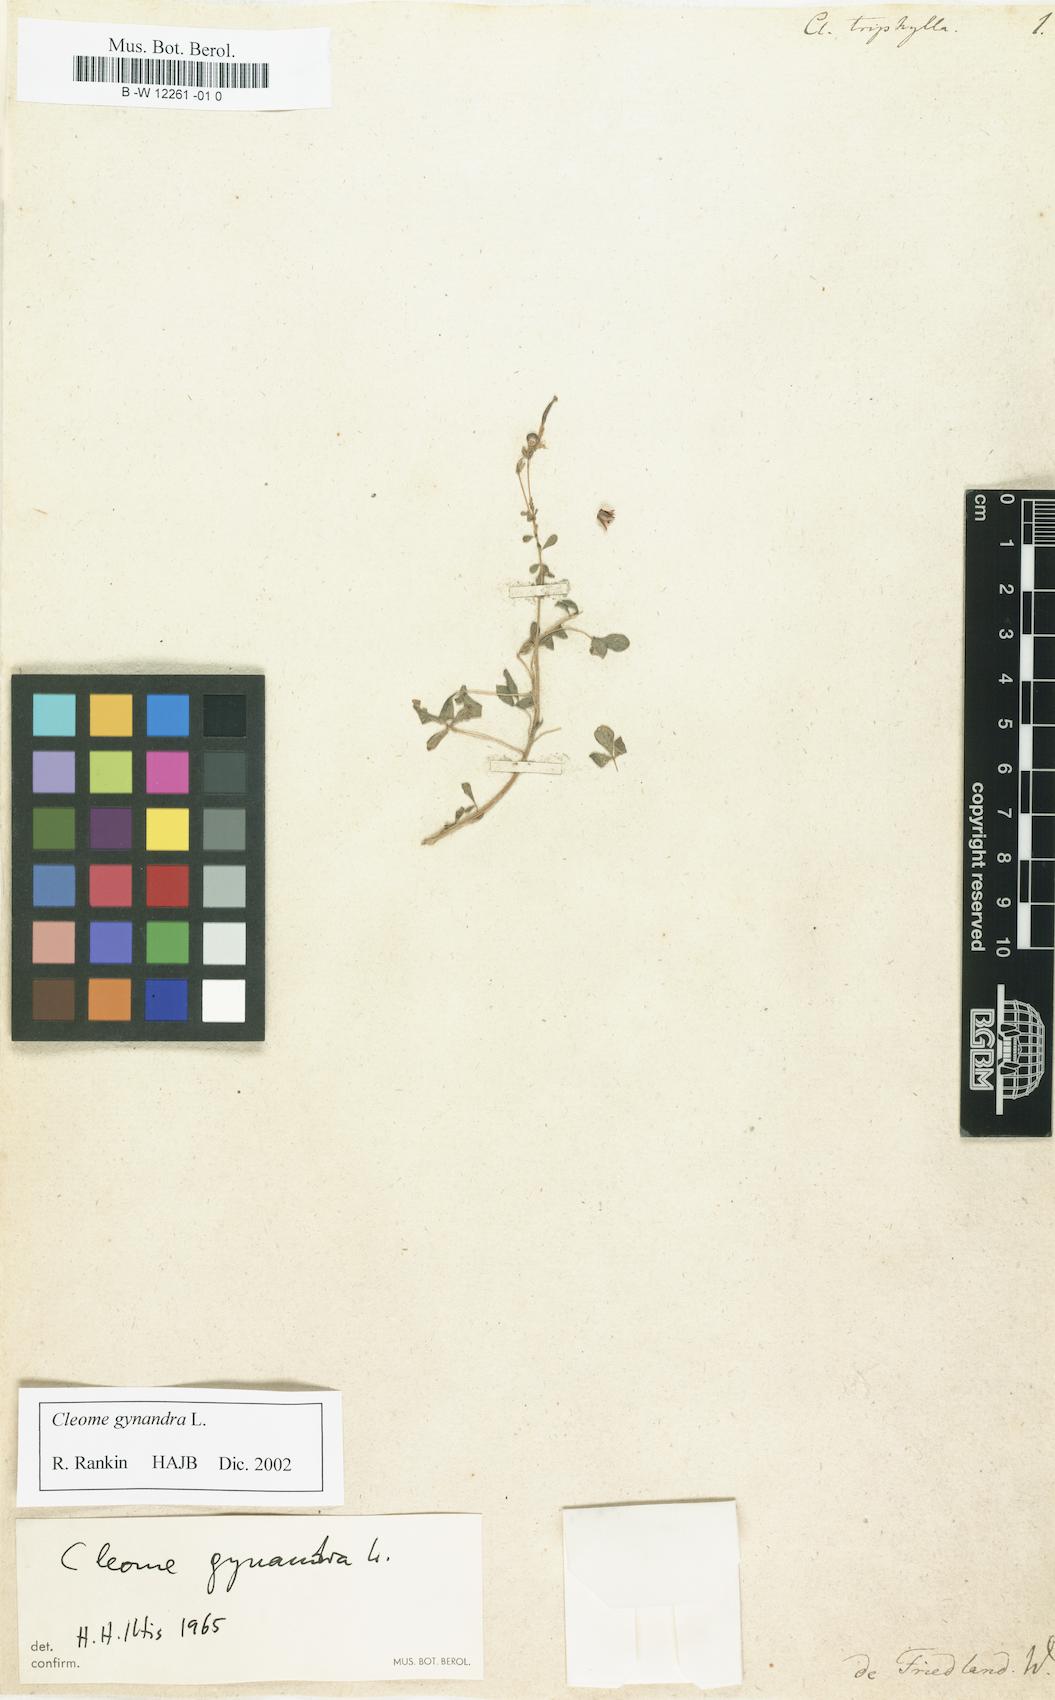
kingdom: Plantae
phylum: Tracheophyta
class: Magnoliopsida
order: Brassicales
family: Cleomaceae
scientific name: Cleomaceae
